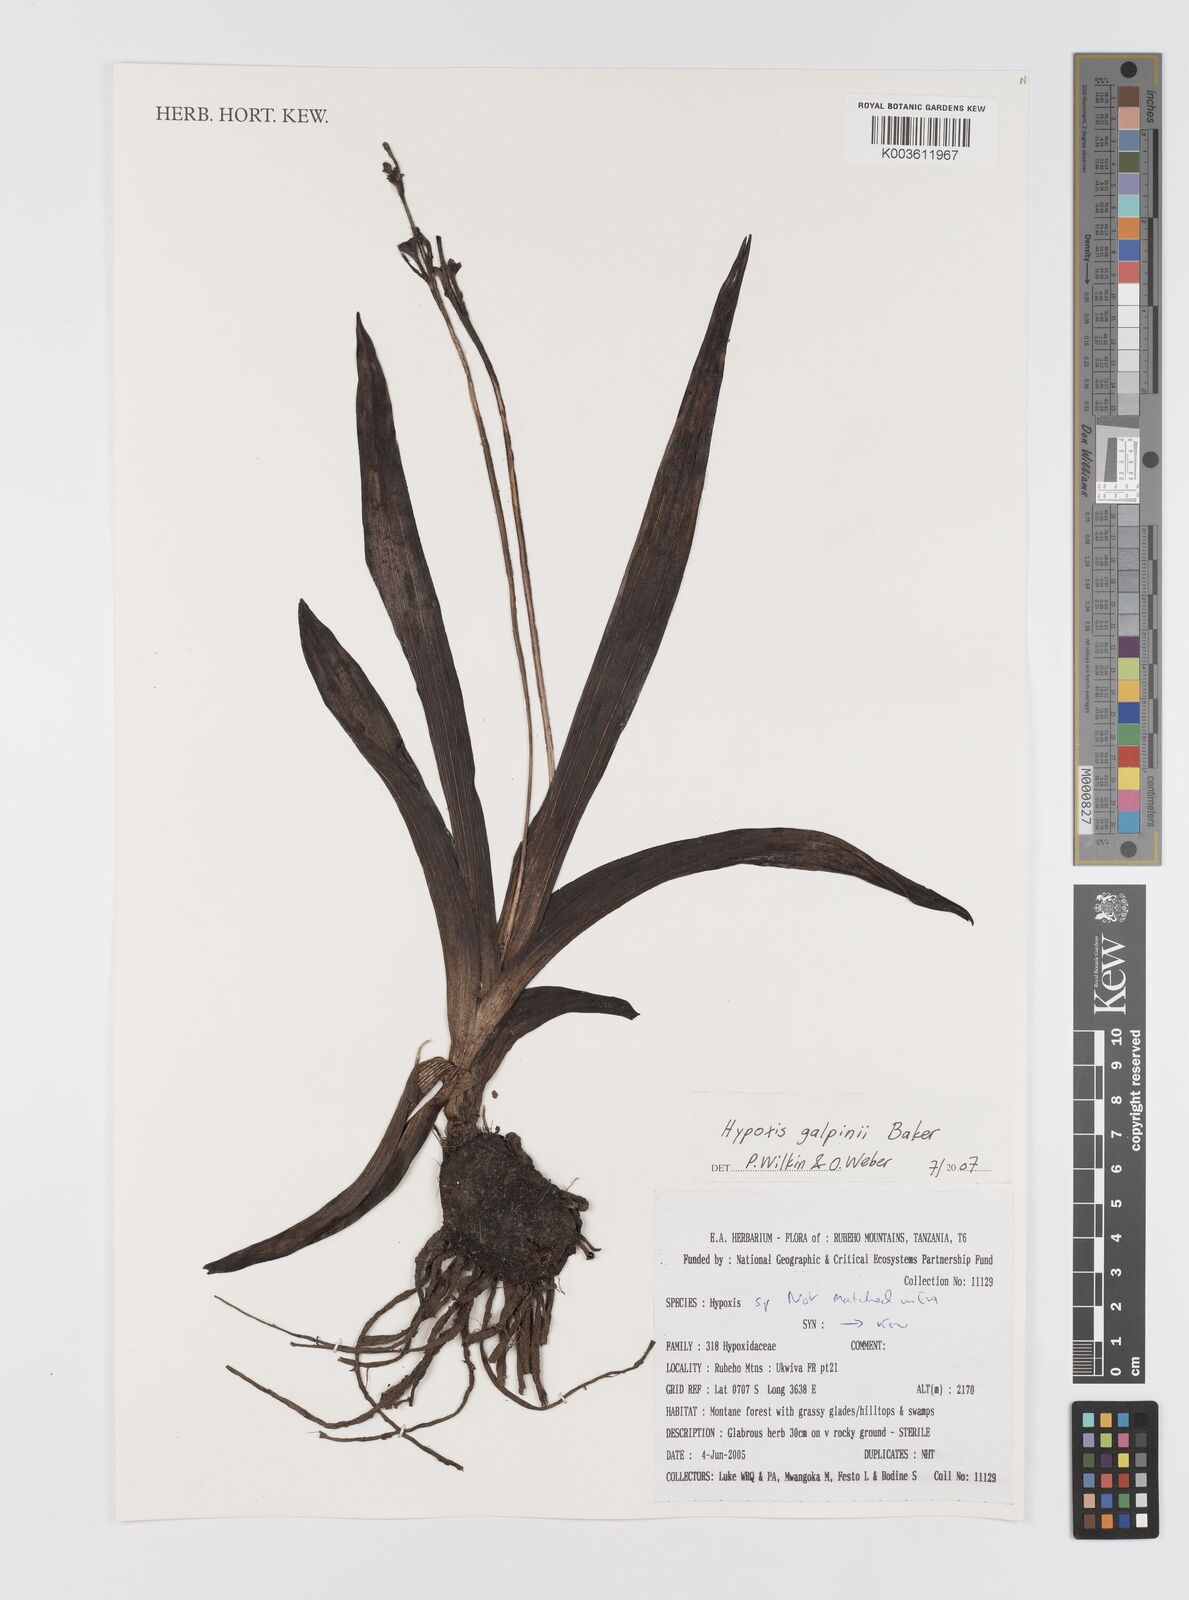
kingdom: Plantae
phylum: Tracheophyta
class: Liliopsida
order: Asparagales
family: Hypoxidaceae
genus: Hypoxis
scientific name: Hypoxis galpinii
